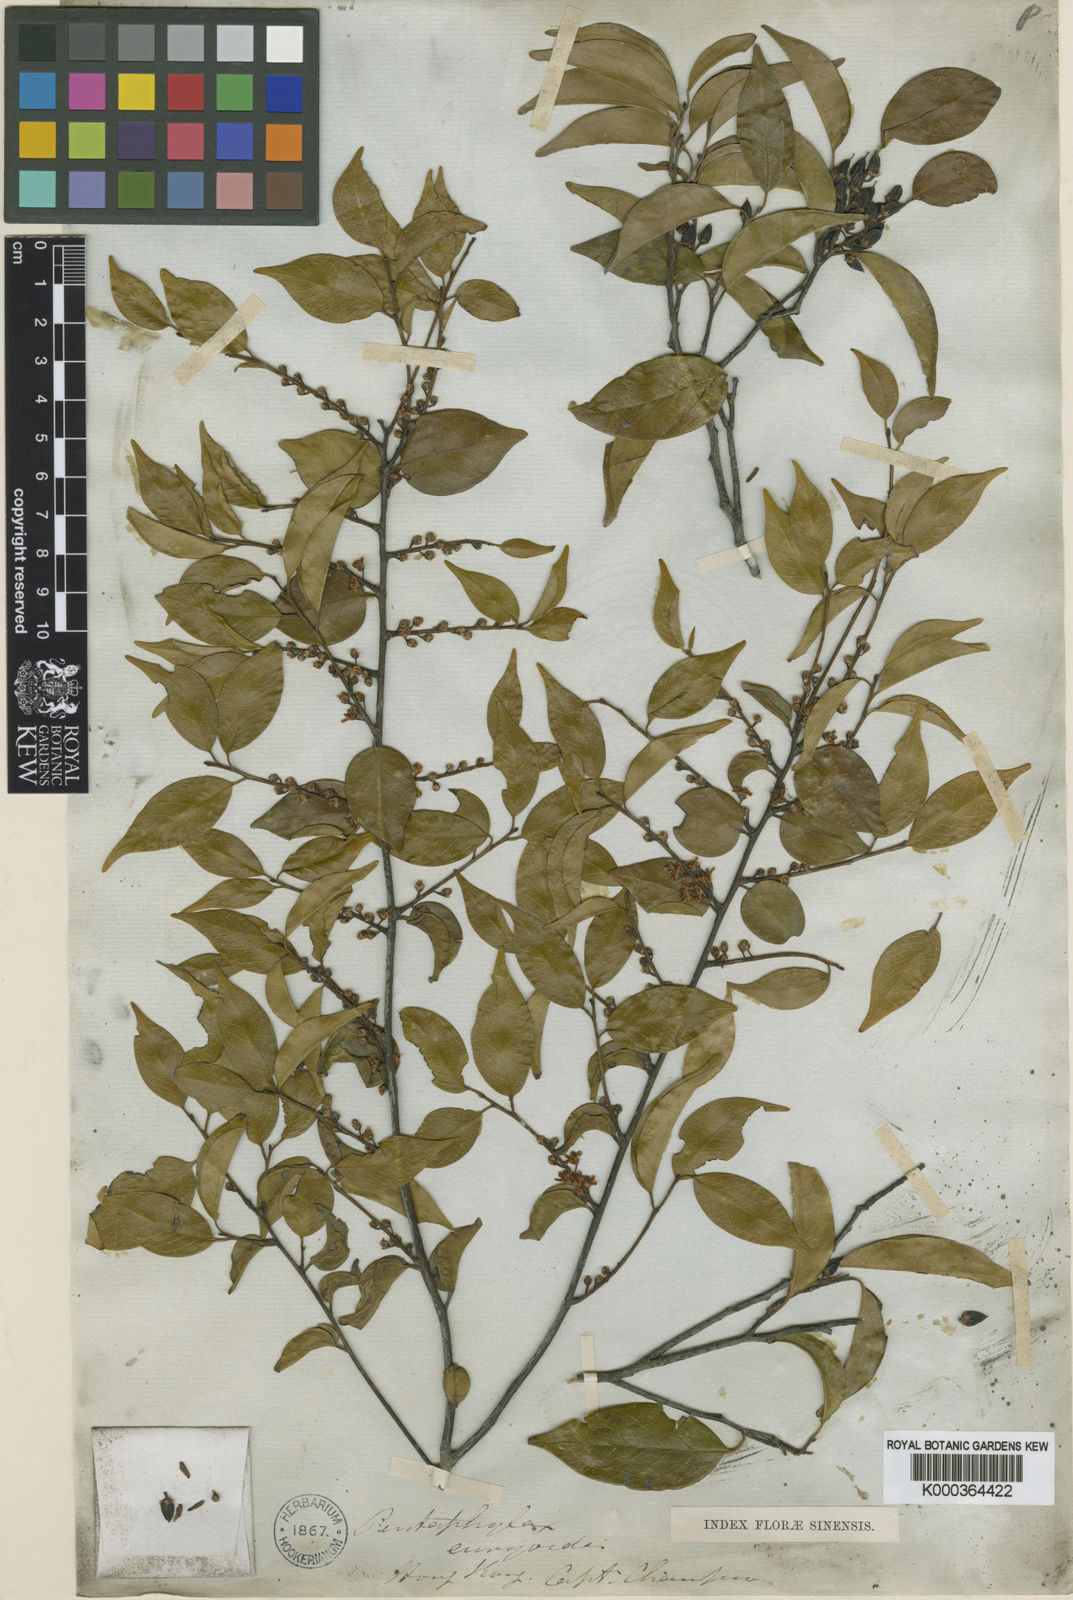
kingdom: Plantae
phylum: Tracheophyta
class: Magnoliopsida
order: Ericales
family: Pentaphylacaceae
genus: Pentaphylax
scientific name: Pentaphylax euryoides
